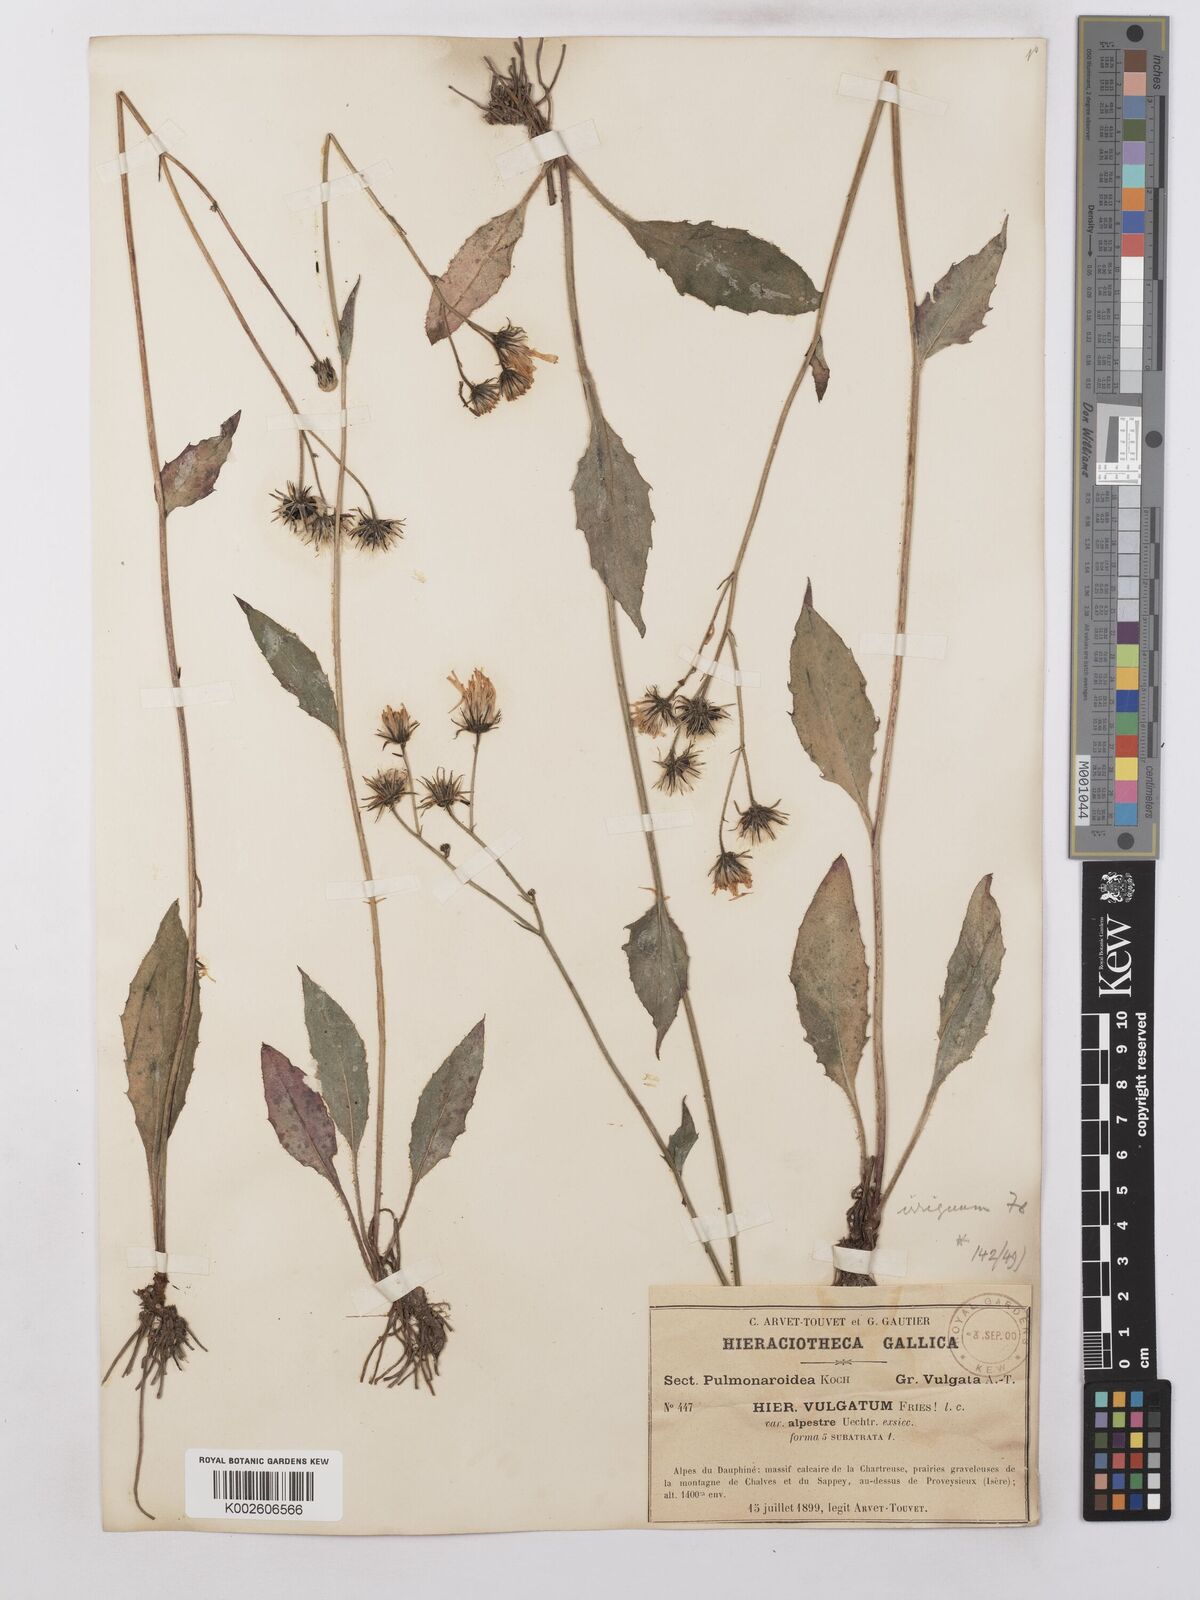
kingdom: Plantae
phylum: Tracheophyta
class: Magnoliopsida
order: Asterales
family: Asteraceae
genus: Hieracium
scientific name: Hieracium lachenalii
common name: Common hawkweed
